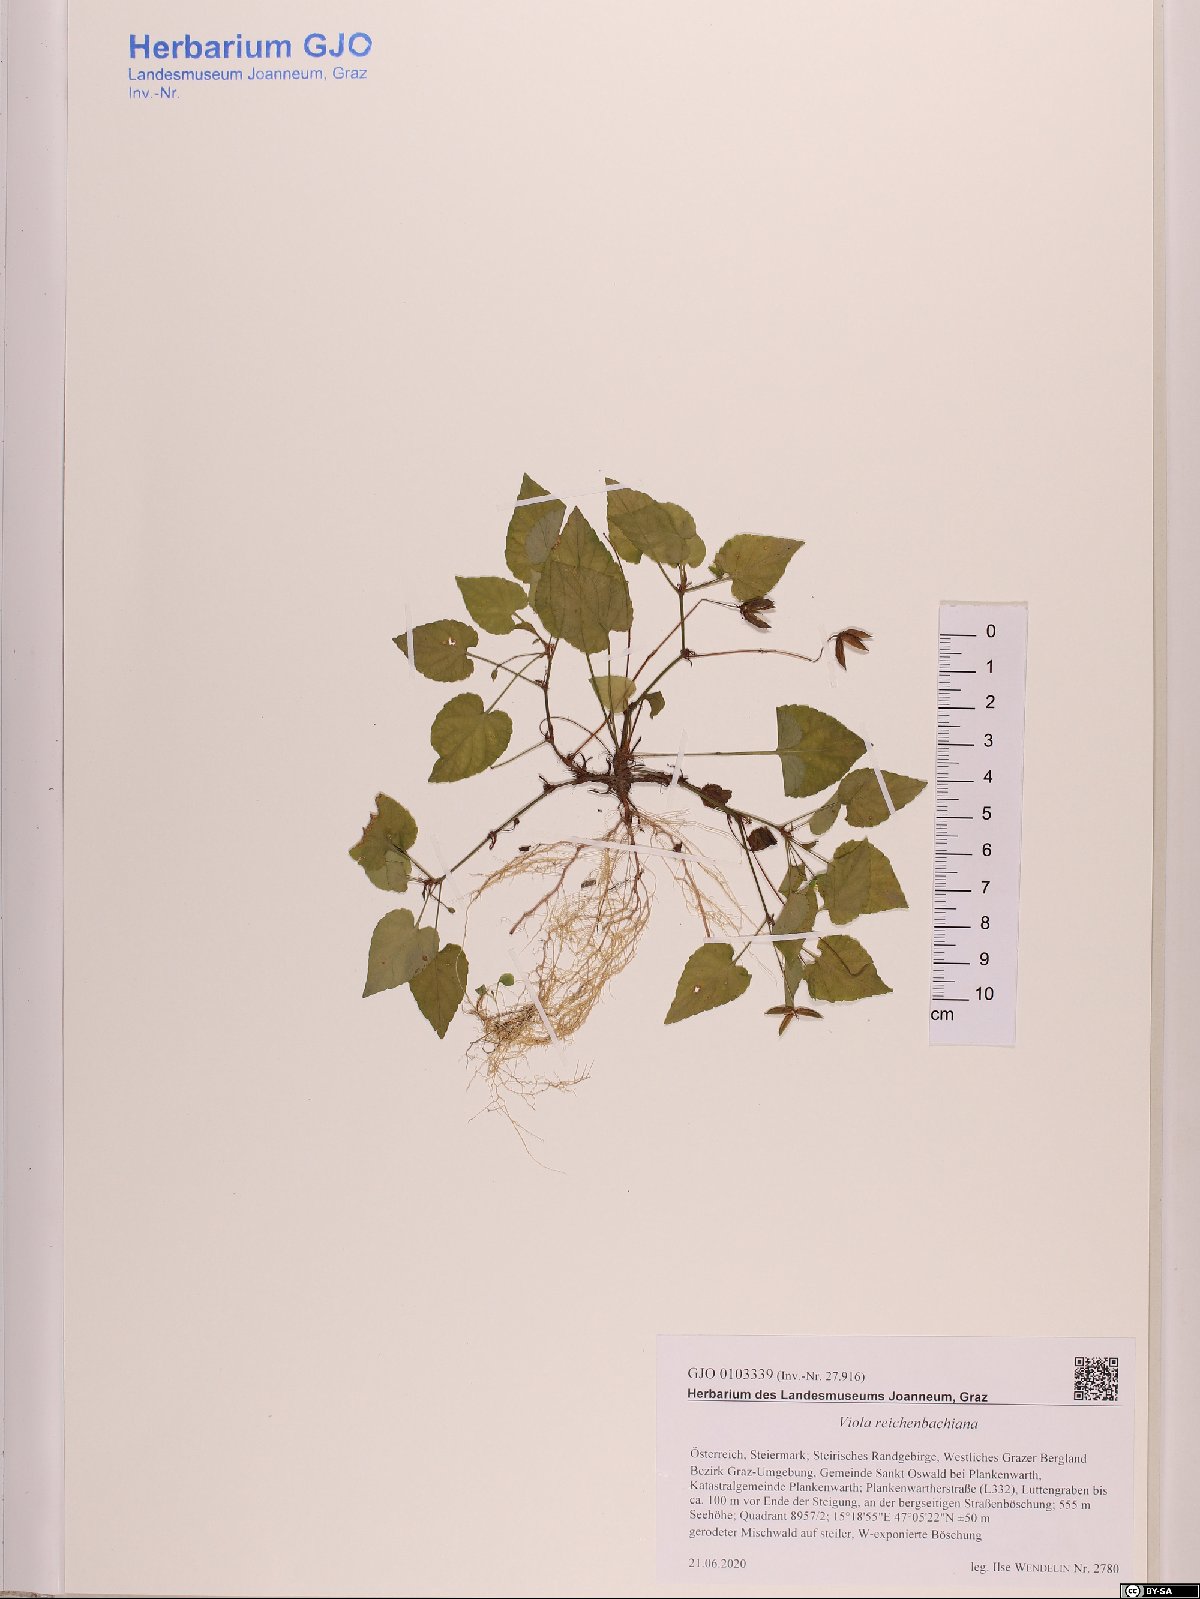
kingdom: Plantae
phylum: Tracheophyta
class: Magnoliopsida
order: Malpighiales
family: Violaceae
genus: Viola
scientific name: Viola reichenbachiana
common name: Early dog-violet
